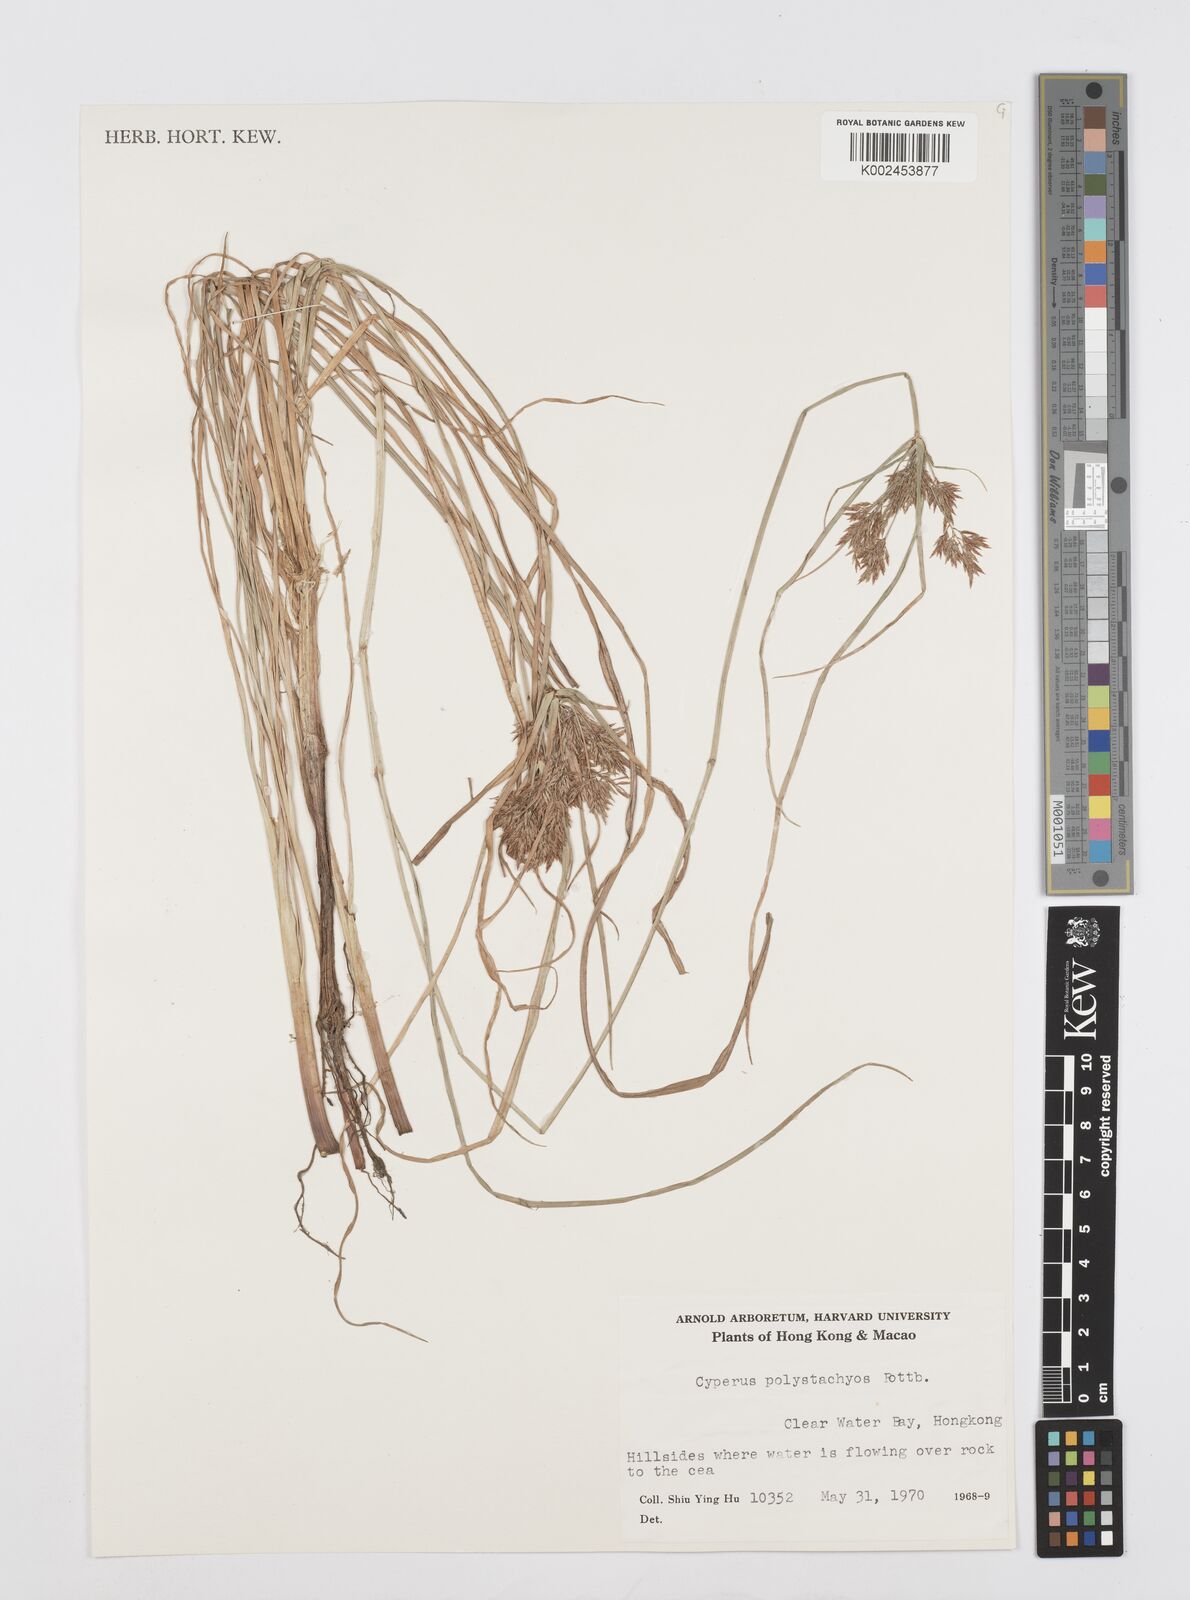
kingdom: Plantae
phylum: Tracheophyta
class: Liliopsida
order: Poales
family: Cyperaceae
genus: Cyperus
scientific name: Cyperus polystachyos
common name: Bunchy flat sedge
